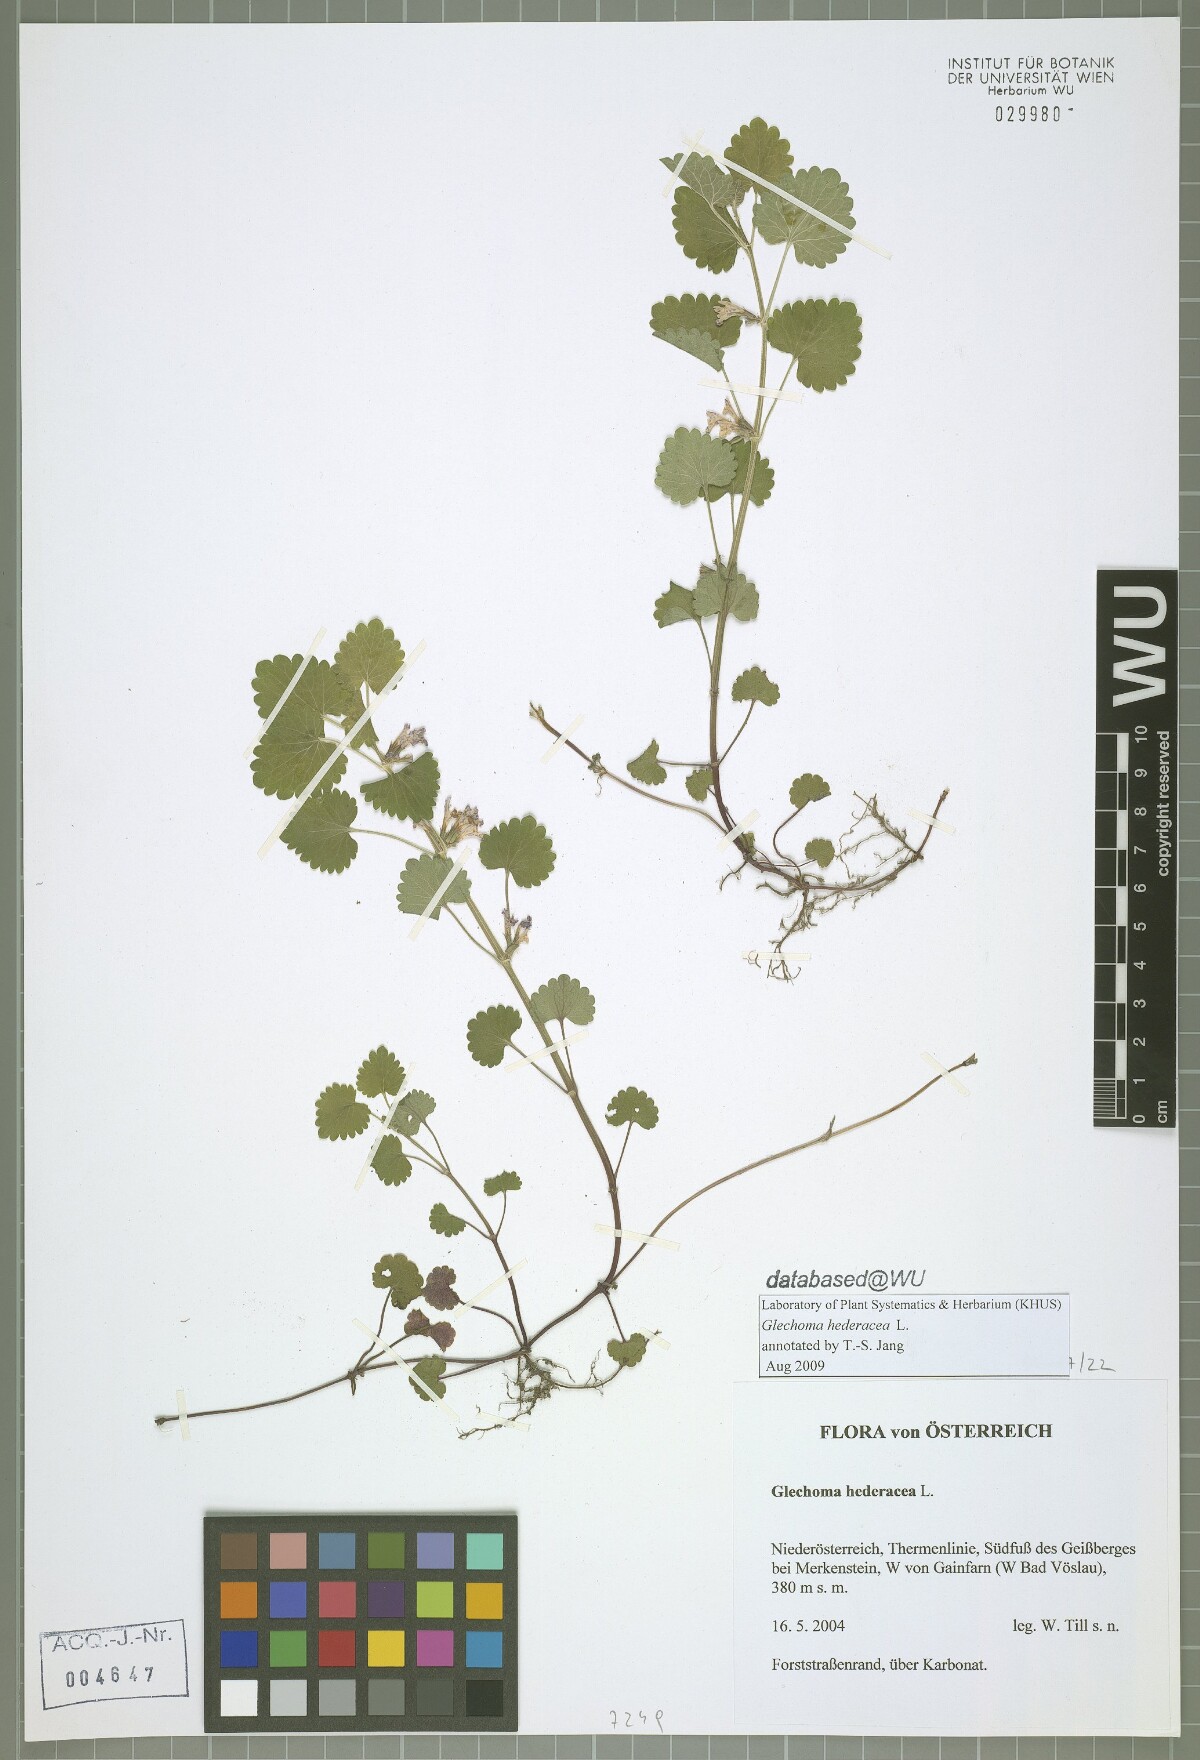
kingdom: Plantae
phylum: Tracheophyta
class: Magnoliopsida
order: Lamiales
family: Lamiaceae
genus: Glechoma
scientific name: Glechoma hederacea
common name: Ground ivy
